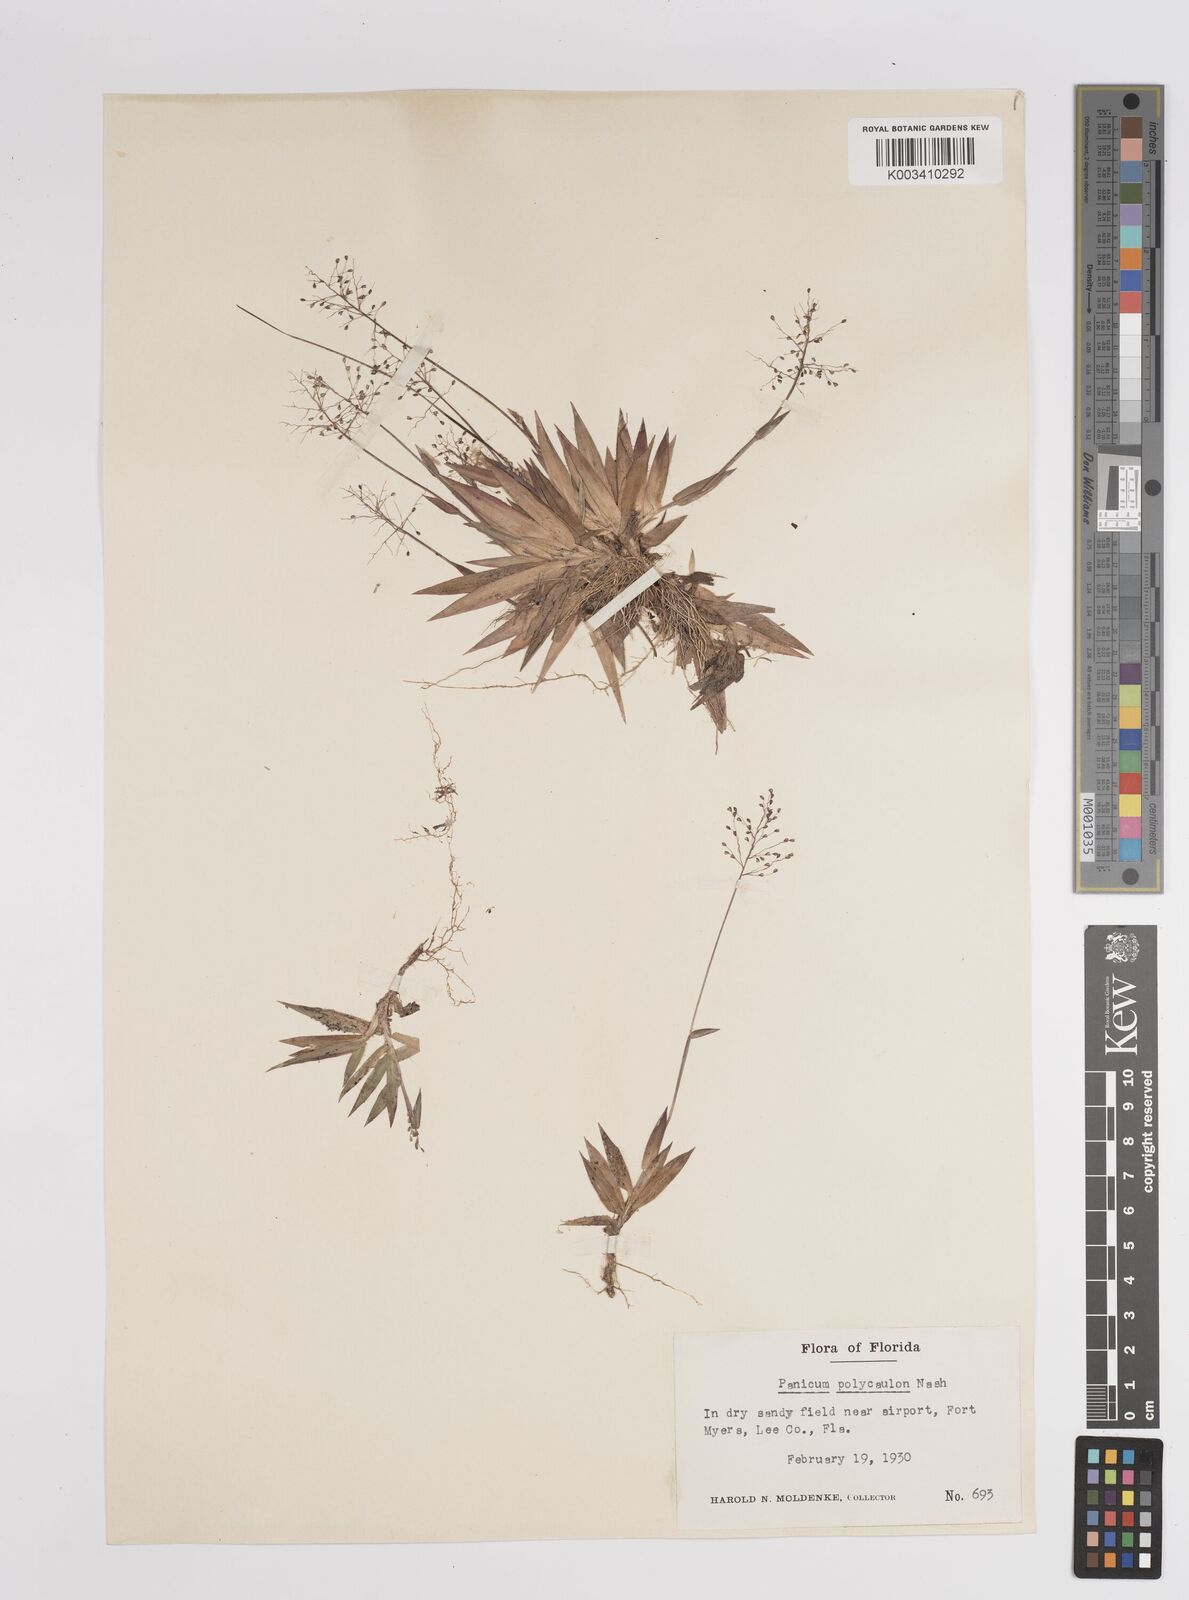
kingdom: Plantae
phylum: Tracheophyta
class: Liliopsida
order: Poales
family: Poaceae
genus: Dichanthelium
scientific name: Dichanthelium strigosum
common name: Cushion-tuft panic grass
